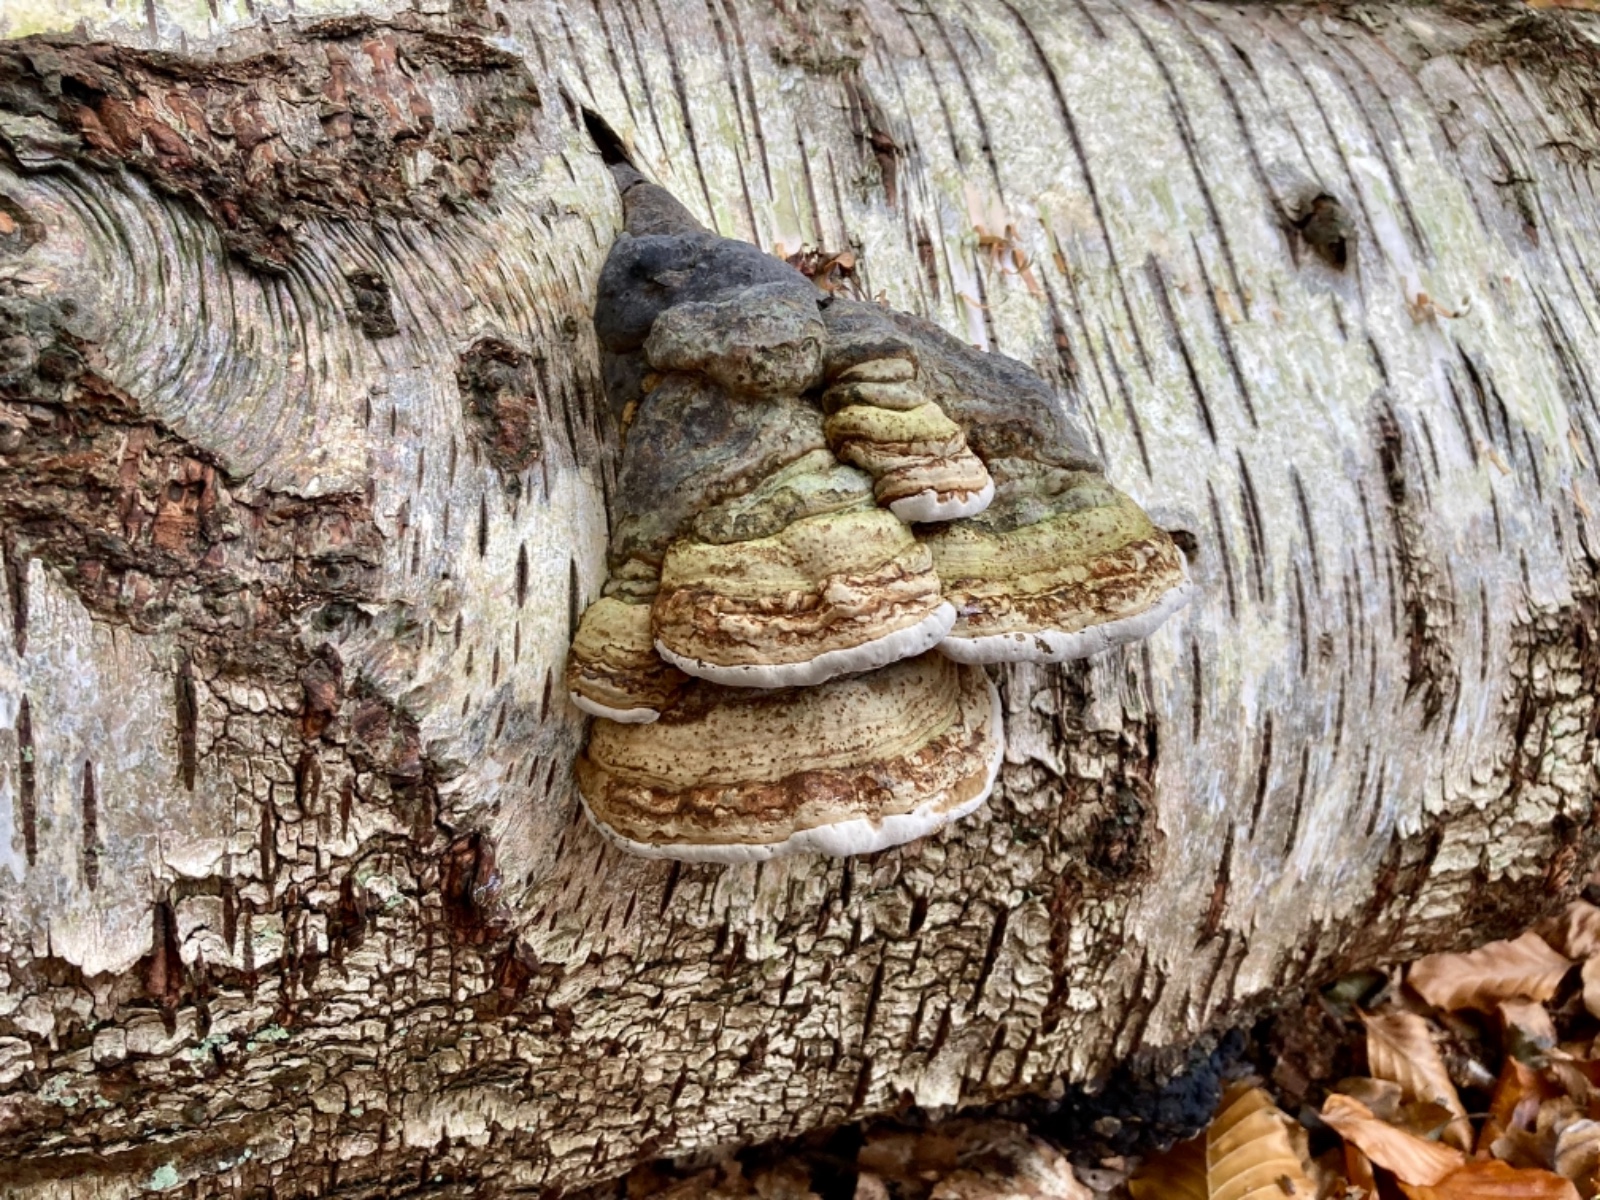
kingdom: Fungi
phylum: Basidiomycota
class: Agaricomycetes
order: Polyporales
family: Polyporaceae
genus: Fomes
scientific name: Fomes fomentarius
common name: tøndersvamp
